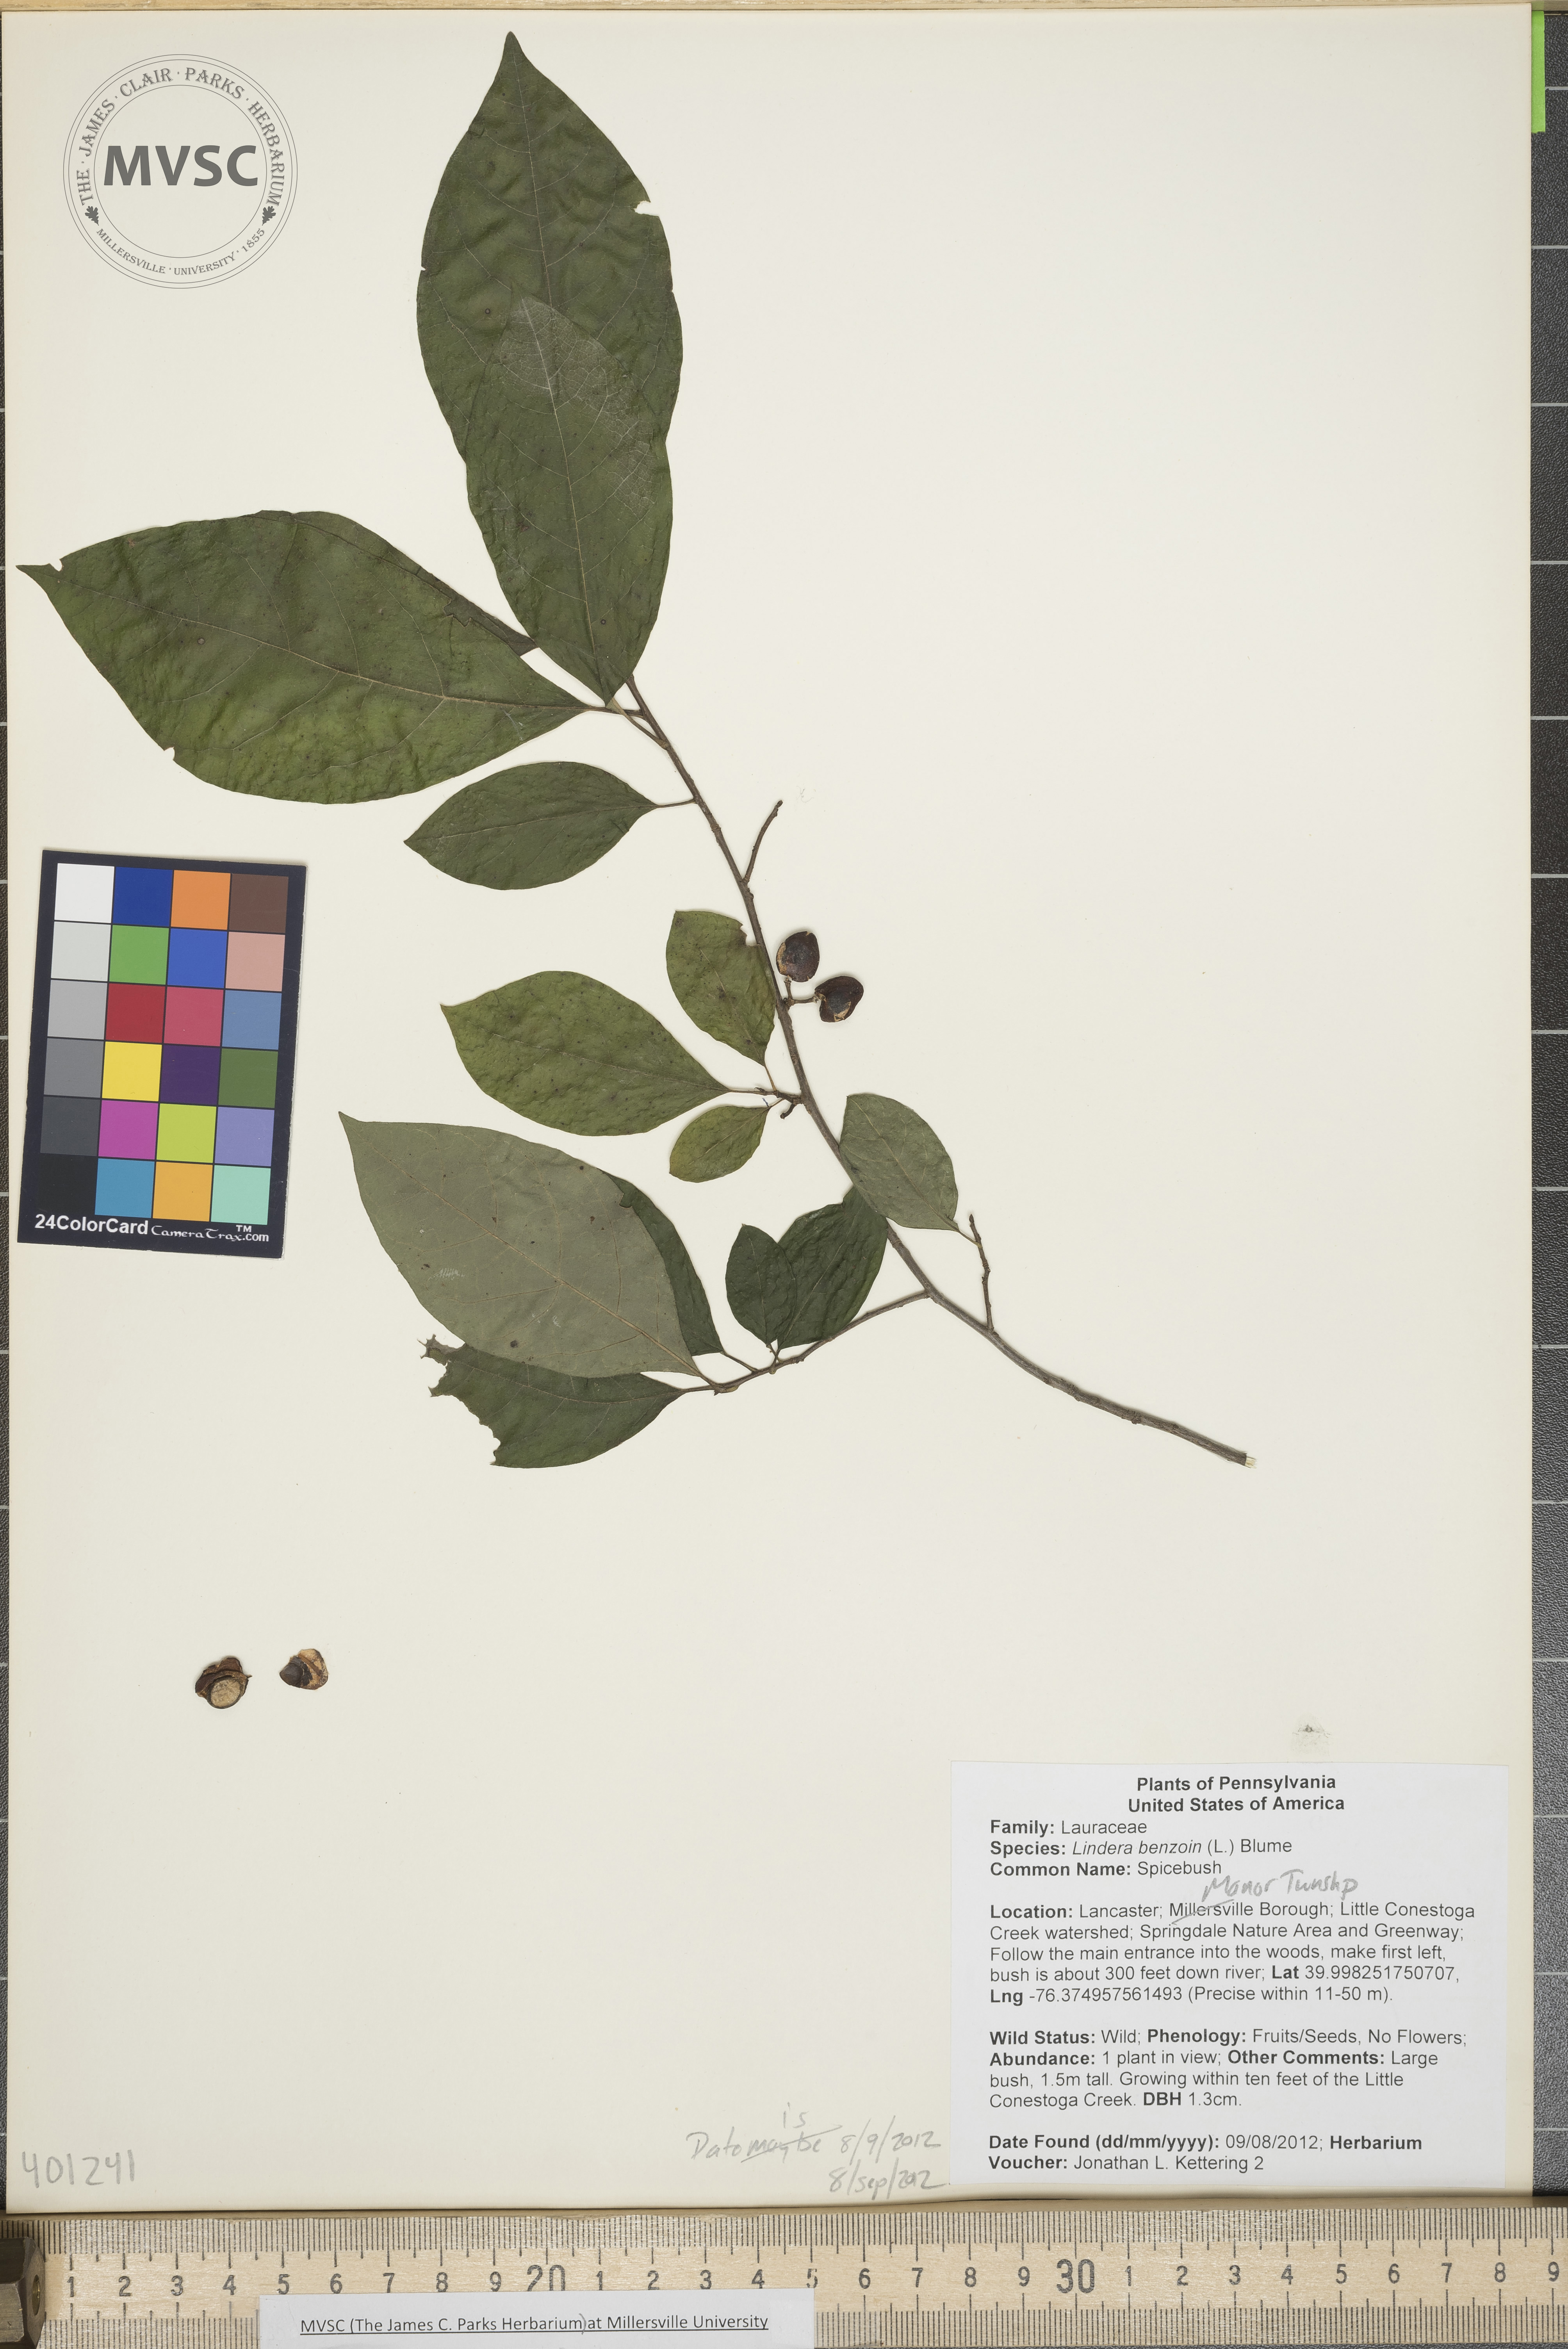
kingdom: Plantae
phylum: Tracheophyta
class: Magnoliopsida
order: Laurales
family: Lauraceae
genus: Lindera
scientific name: Lindera benzoin
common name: Spicebush
